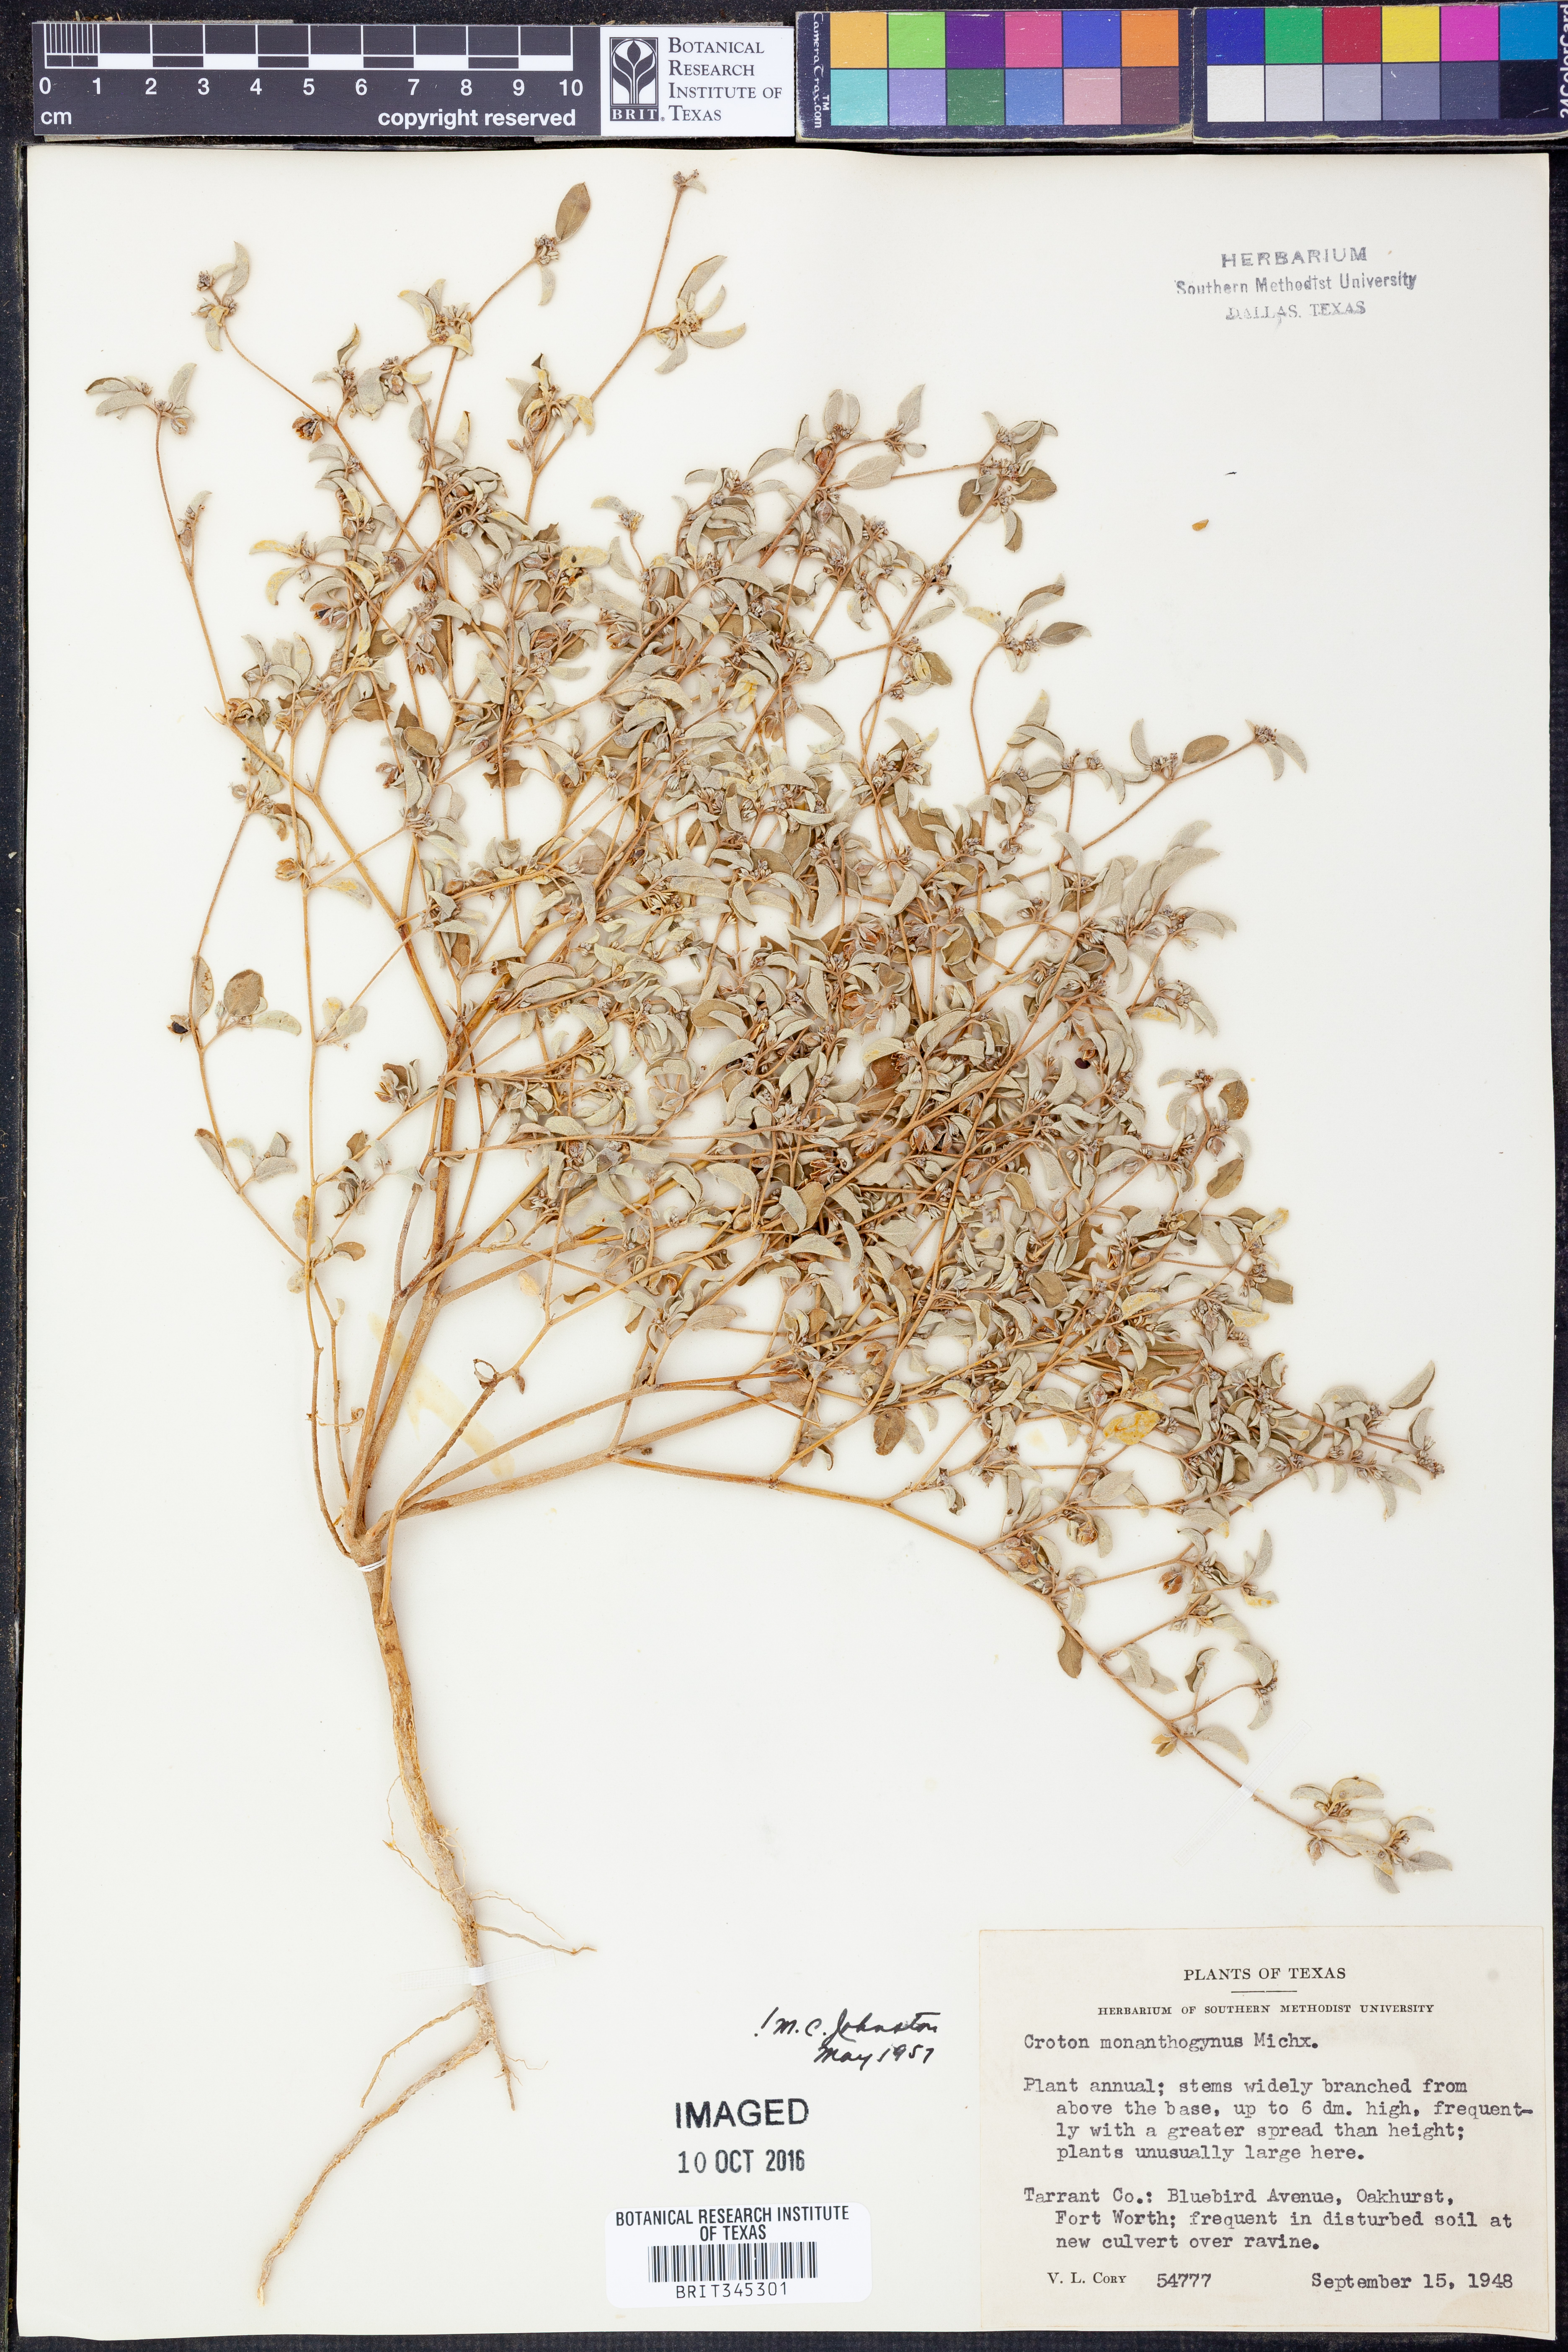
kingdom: Plantae
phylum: Tracheophyta
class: Magnoliopsida
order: Malpighiales
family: Euphorbiaceae
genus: Croton
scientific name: Croton monanthogynus
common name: One-seed croton
